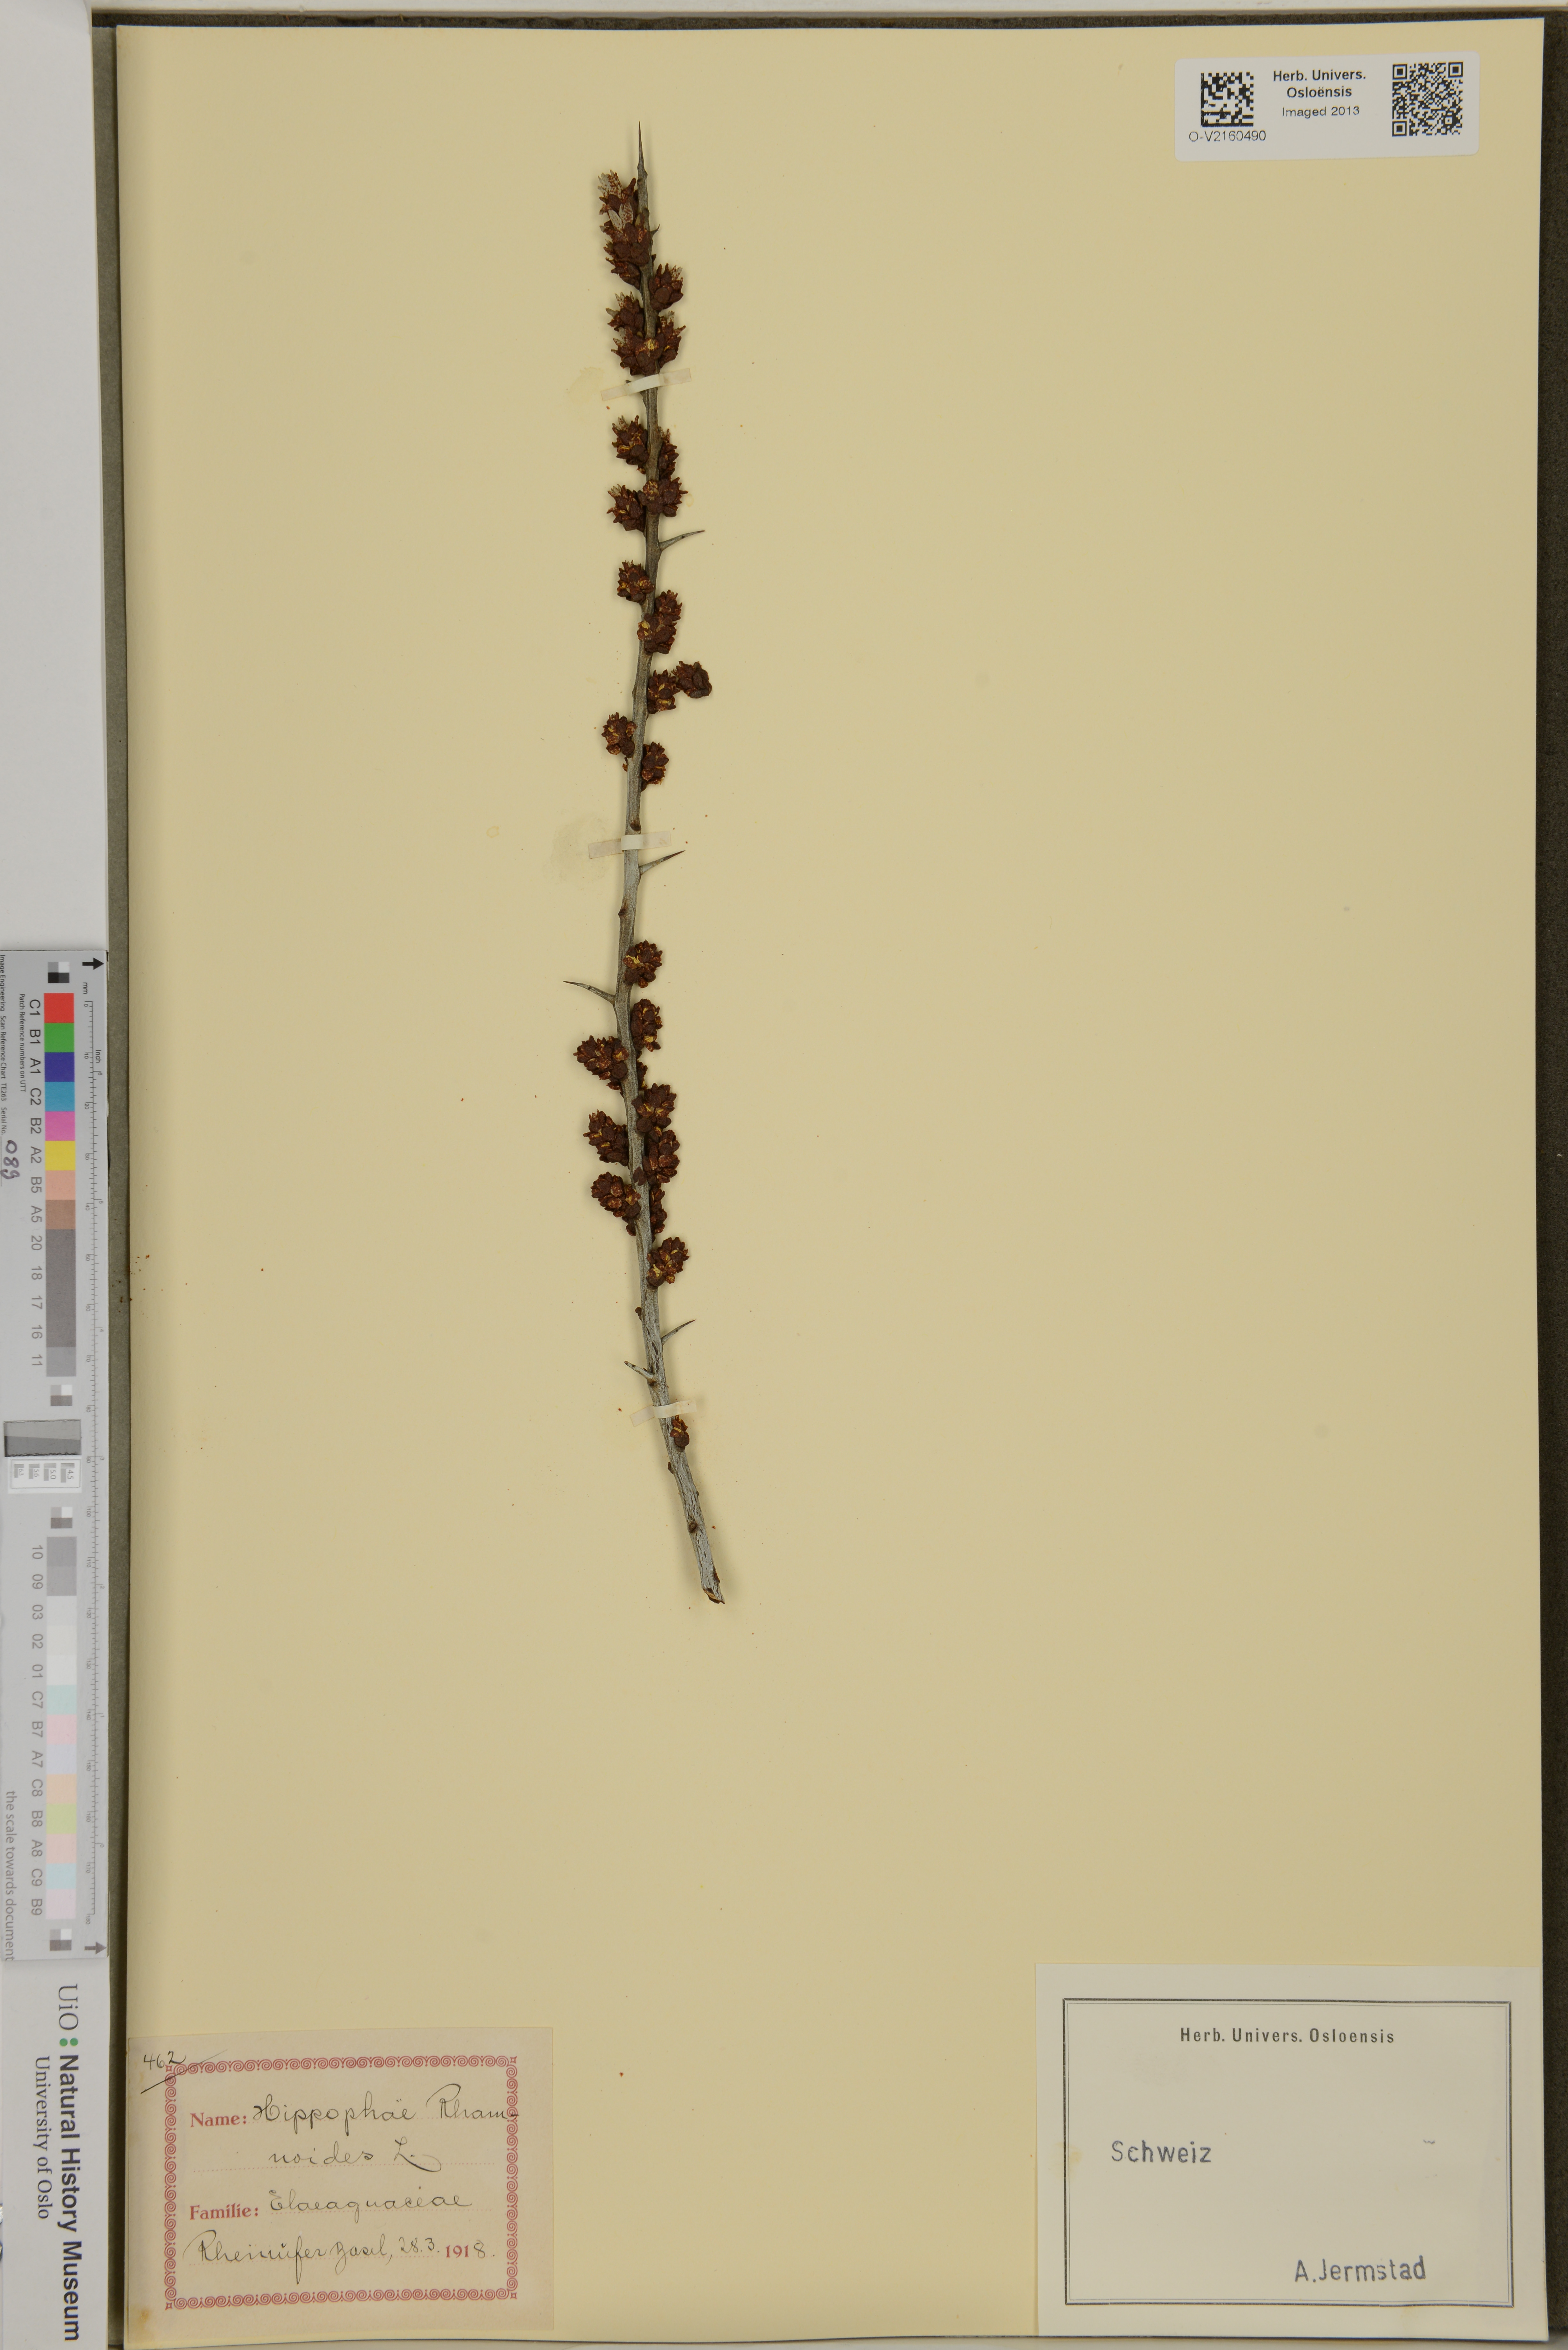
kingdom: Plantae
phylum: Tracheophyta
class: Magnoliopsida
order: Rosales
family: Elaeagnaceae
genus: Hippophae
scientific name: Hippophae rhamnoides
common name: Sea-buckthorn
